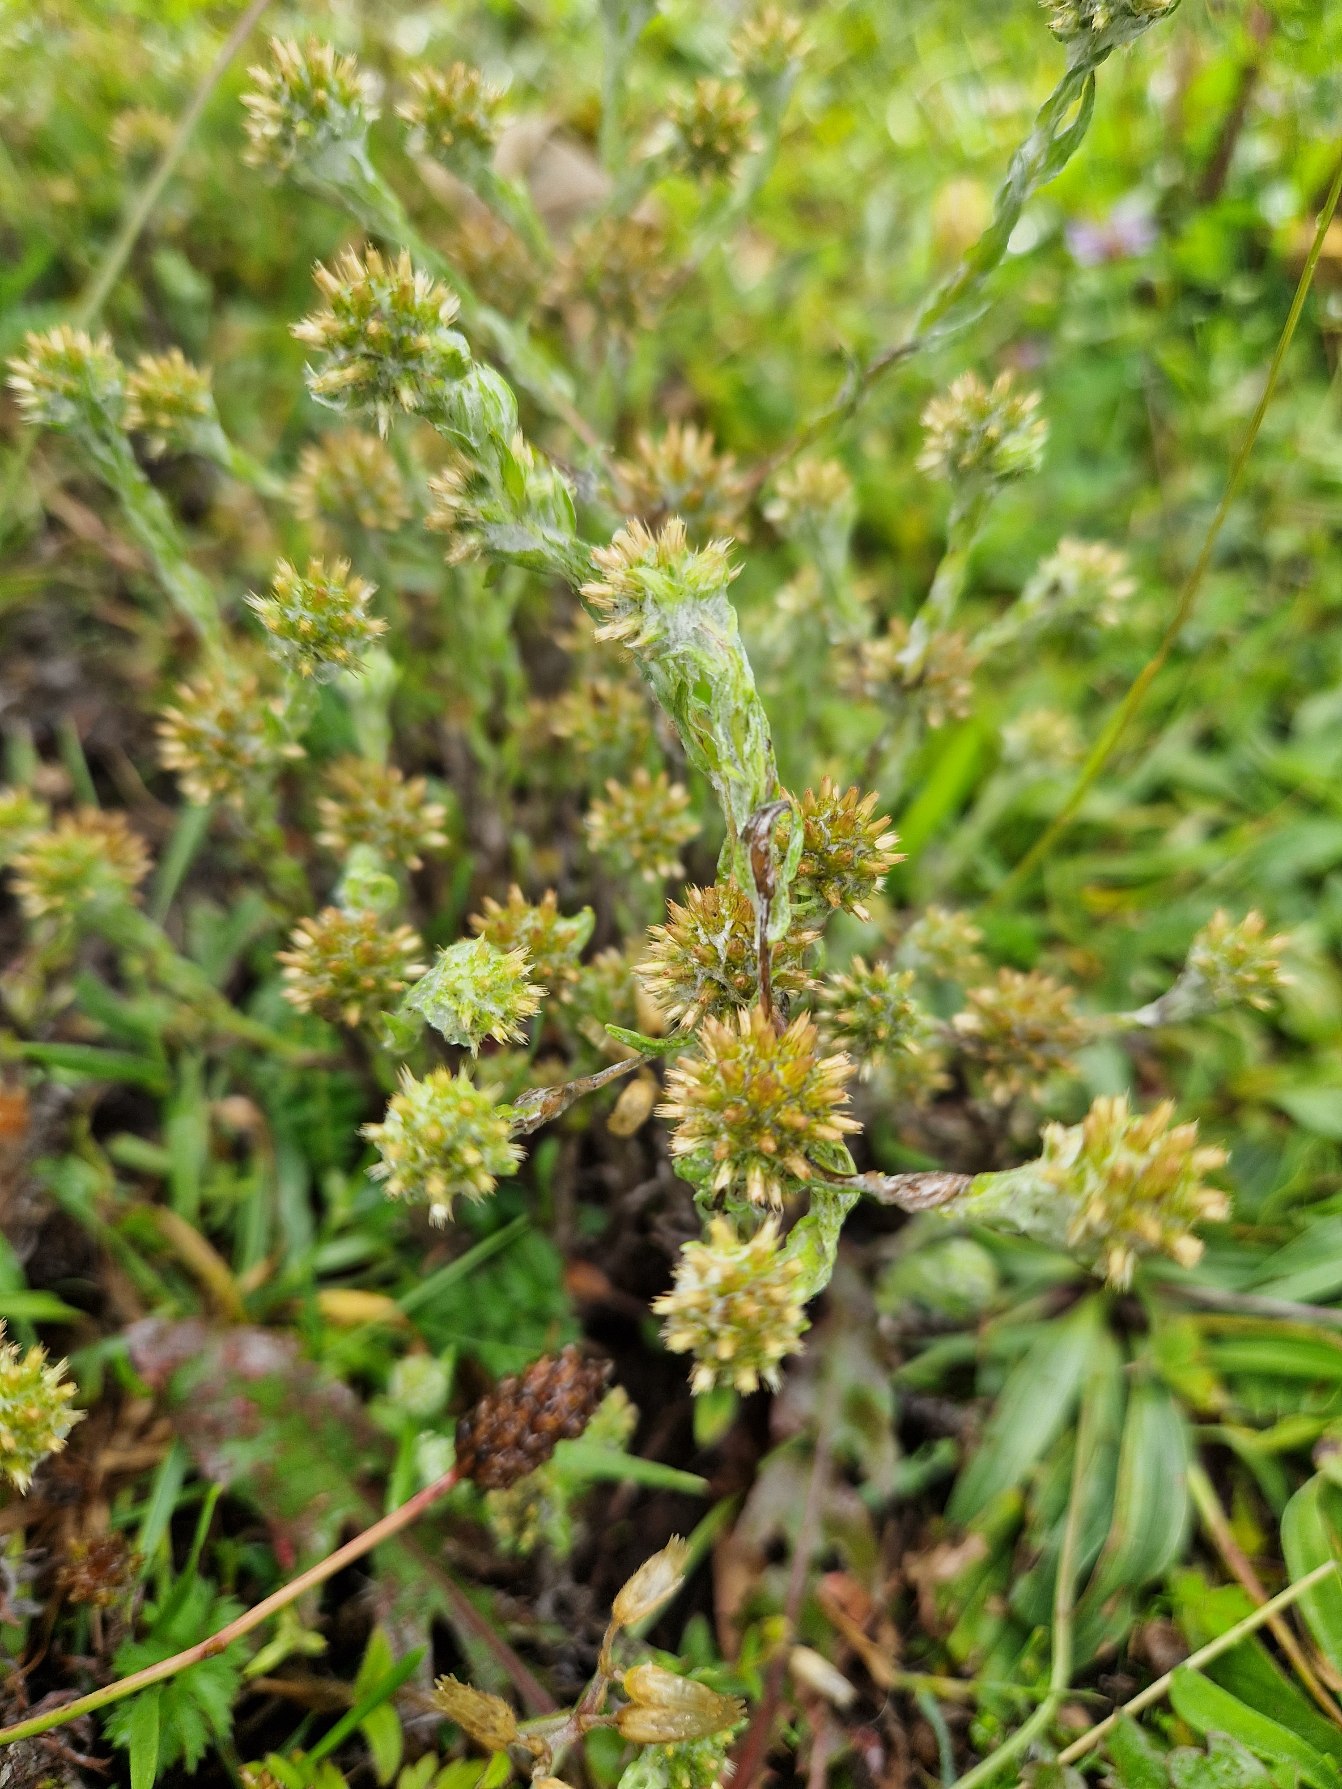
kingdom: Plantae
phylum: Tracheophyta
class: Magnoliopsida
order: Asterales
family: Asteraceae
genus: Filago
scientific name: Filago germanica
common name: Kugle-museurt
